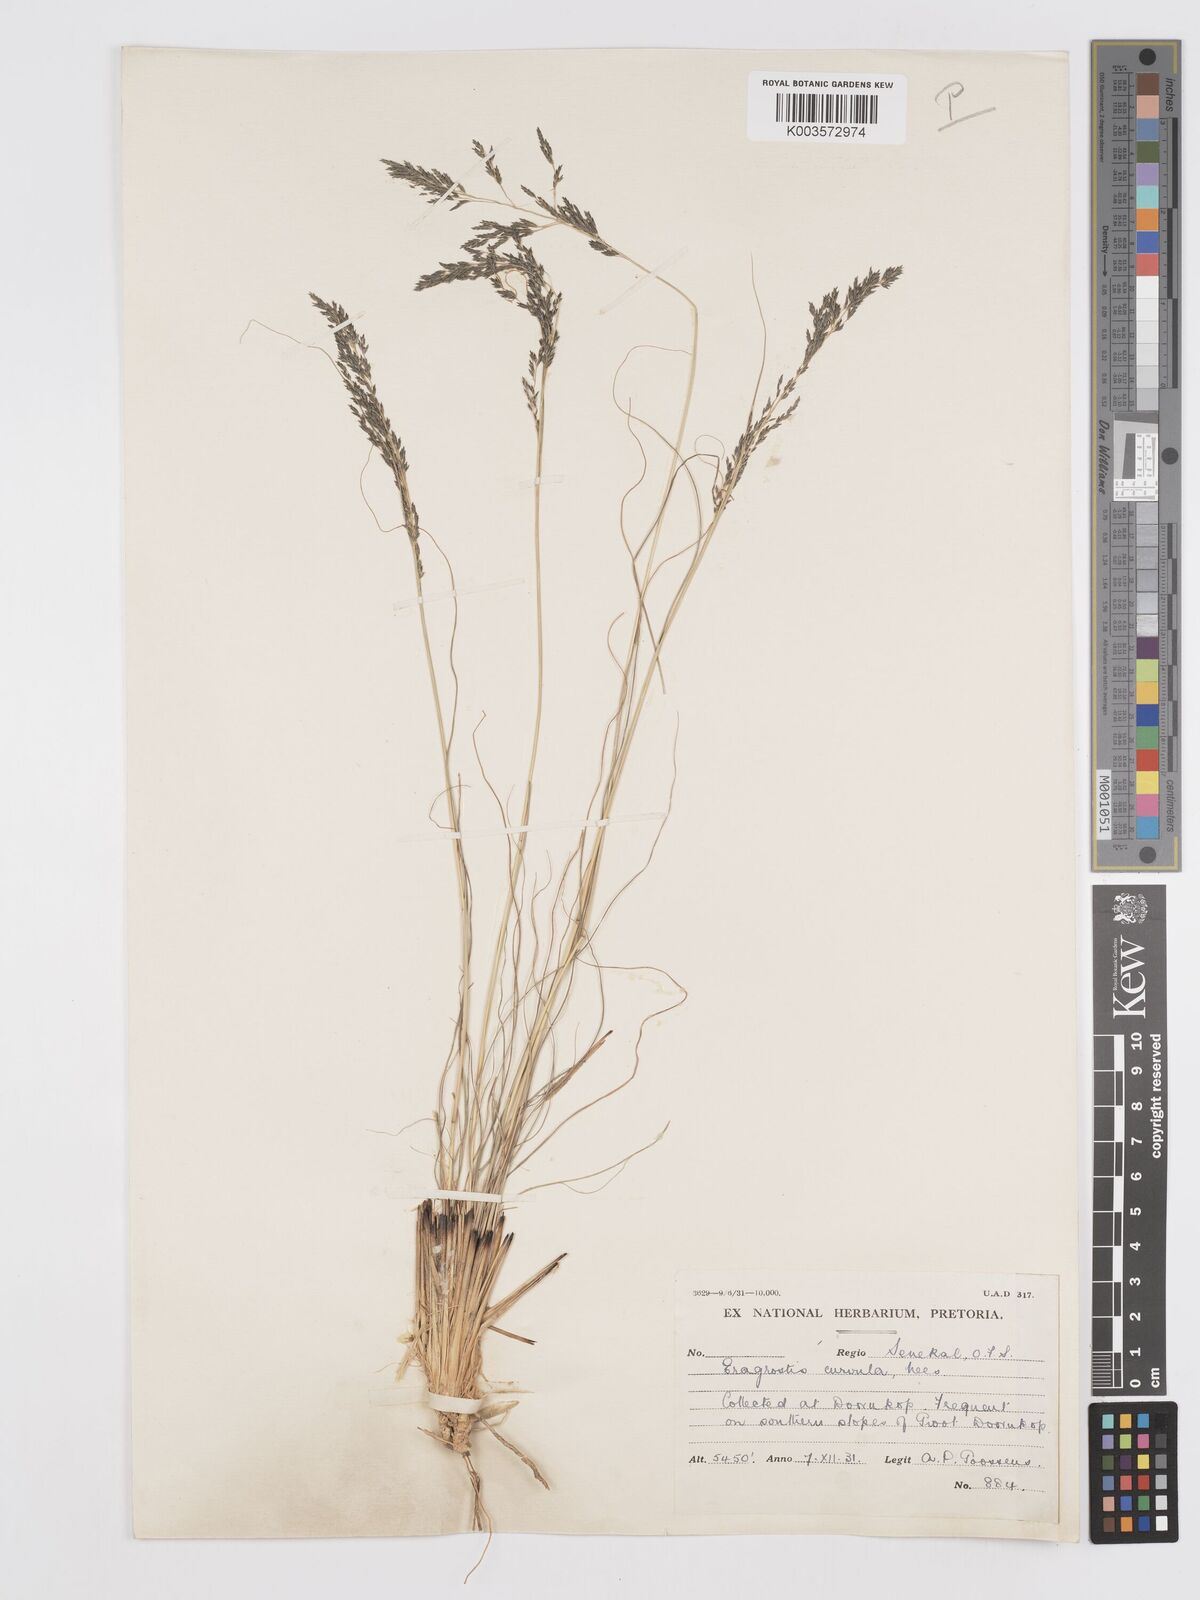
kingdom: Plantae
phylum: Tracheophyta
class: Liliopsida
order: Poales
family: Poaceae
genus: Eragrostis
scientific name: Eragrostis curvula
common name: African love-grass
